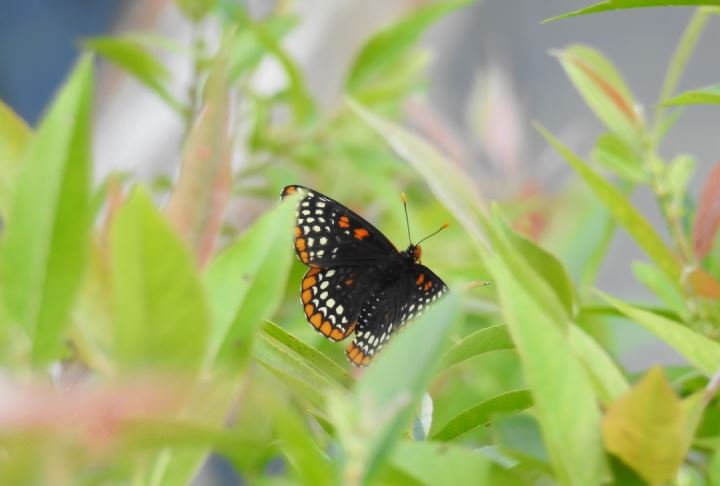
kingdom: Animalia
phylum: Arthropoda
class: Insecta
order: Lepidoptera
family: Nymphalidae
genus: Euphydryas
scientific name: Euphydryas phaeton
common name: Baltimore Checkerspot
